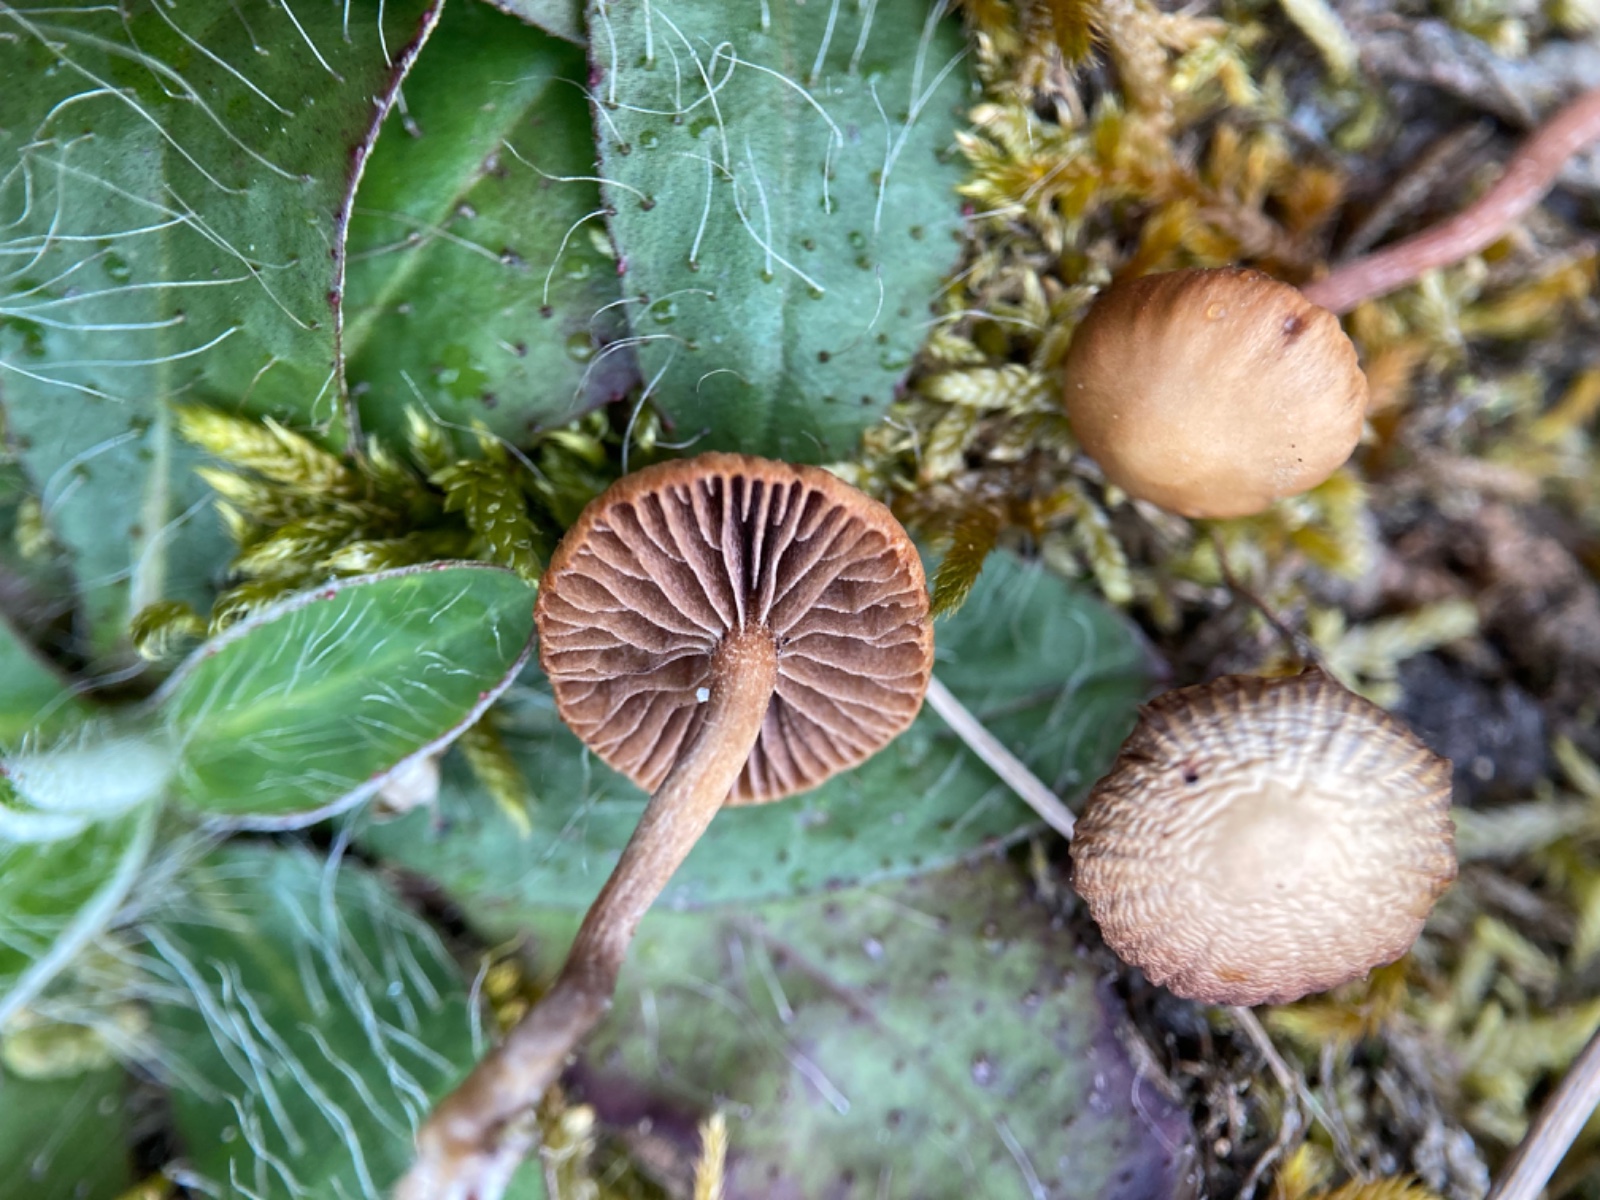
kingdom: Fungi
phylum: Basidiomycota
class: Agaricomycetes
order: Agaricales
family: Strophariaceae
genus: Deconica
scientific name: Deconica montana
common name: rødbrun stråhat
